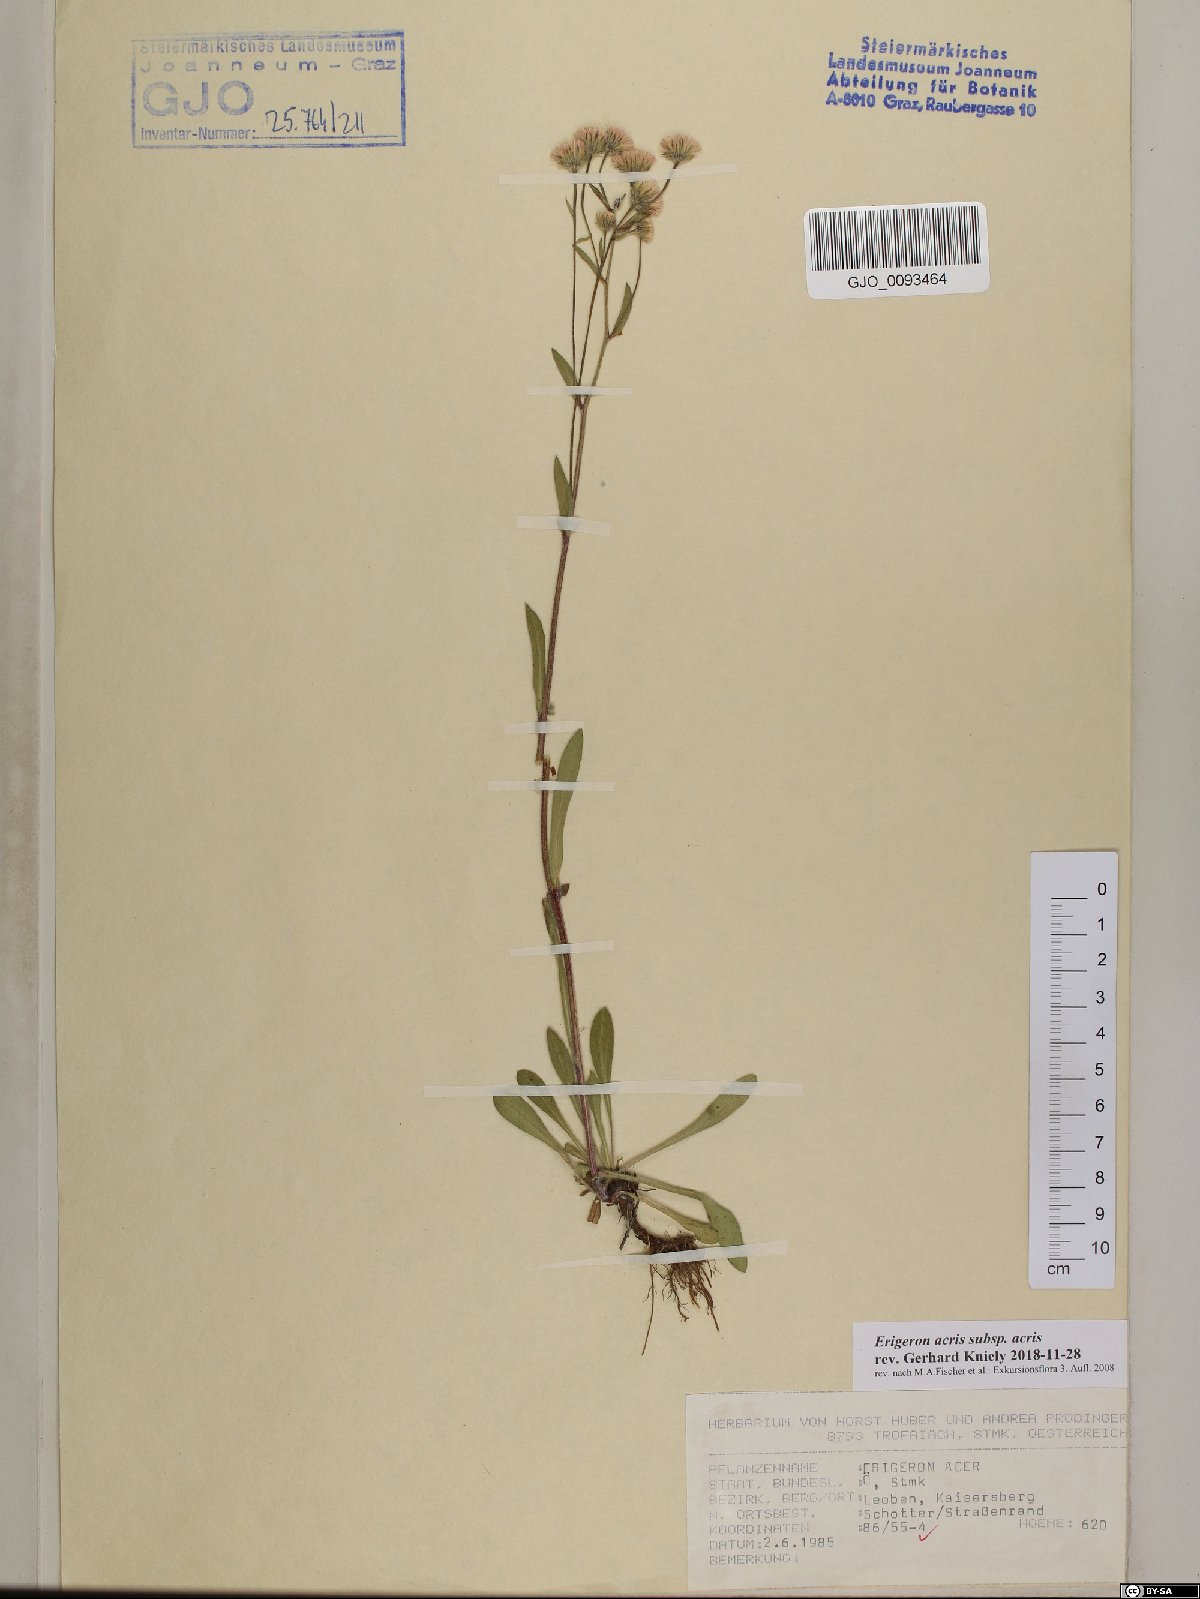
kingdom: Plantae
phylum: Tracheophyta
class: Magnoliopsida
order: Asterales
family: Asteraceae
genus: Erigeron
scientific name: Erigeron acris
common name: Blue fleabane
